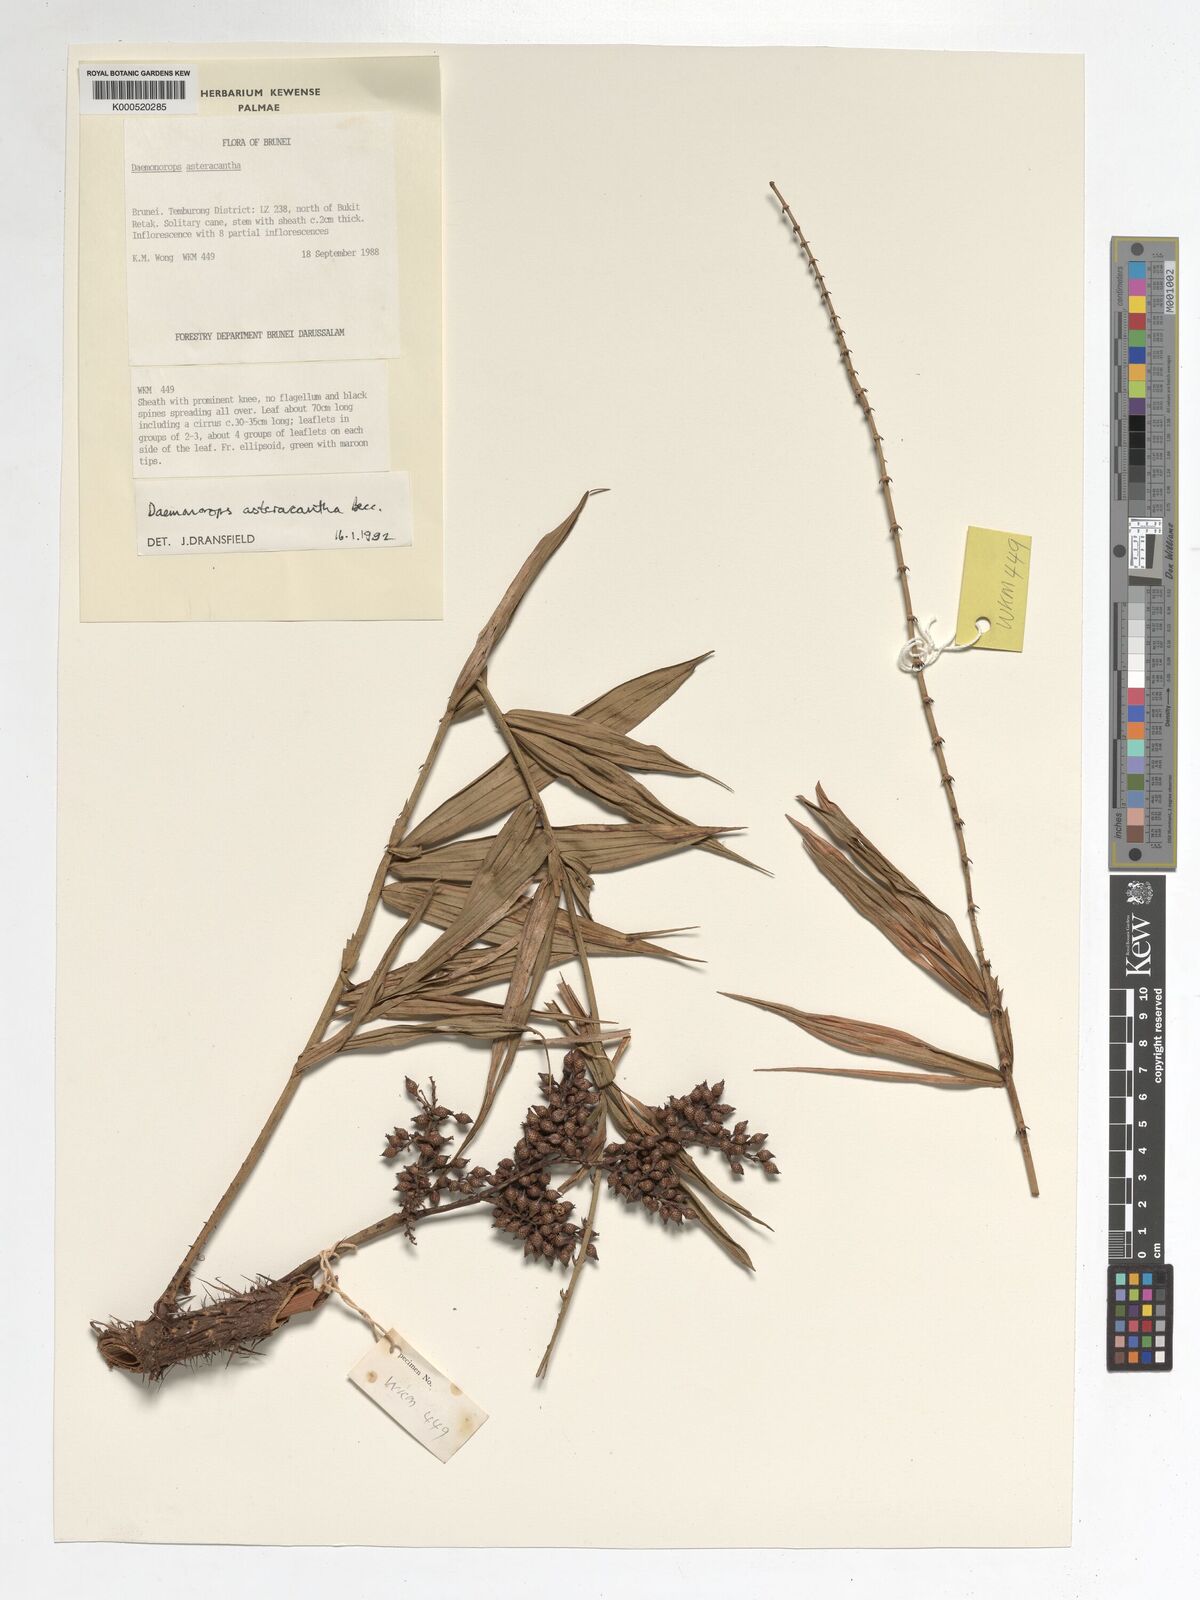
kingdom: Plantae
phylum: Tracheophyta
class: Liliopsida
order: Arecales
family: Arecaceae
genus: Calamus
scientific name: Calamus asteracanthus
